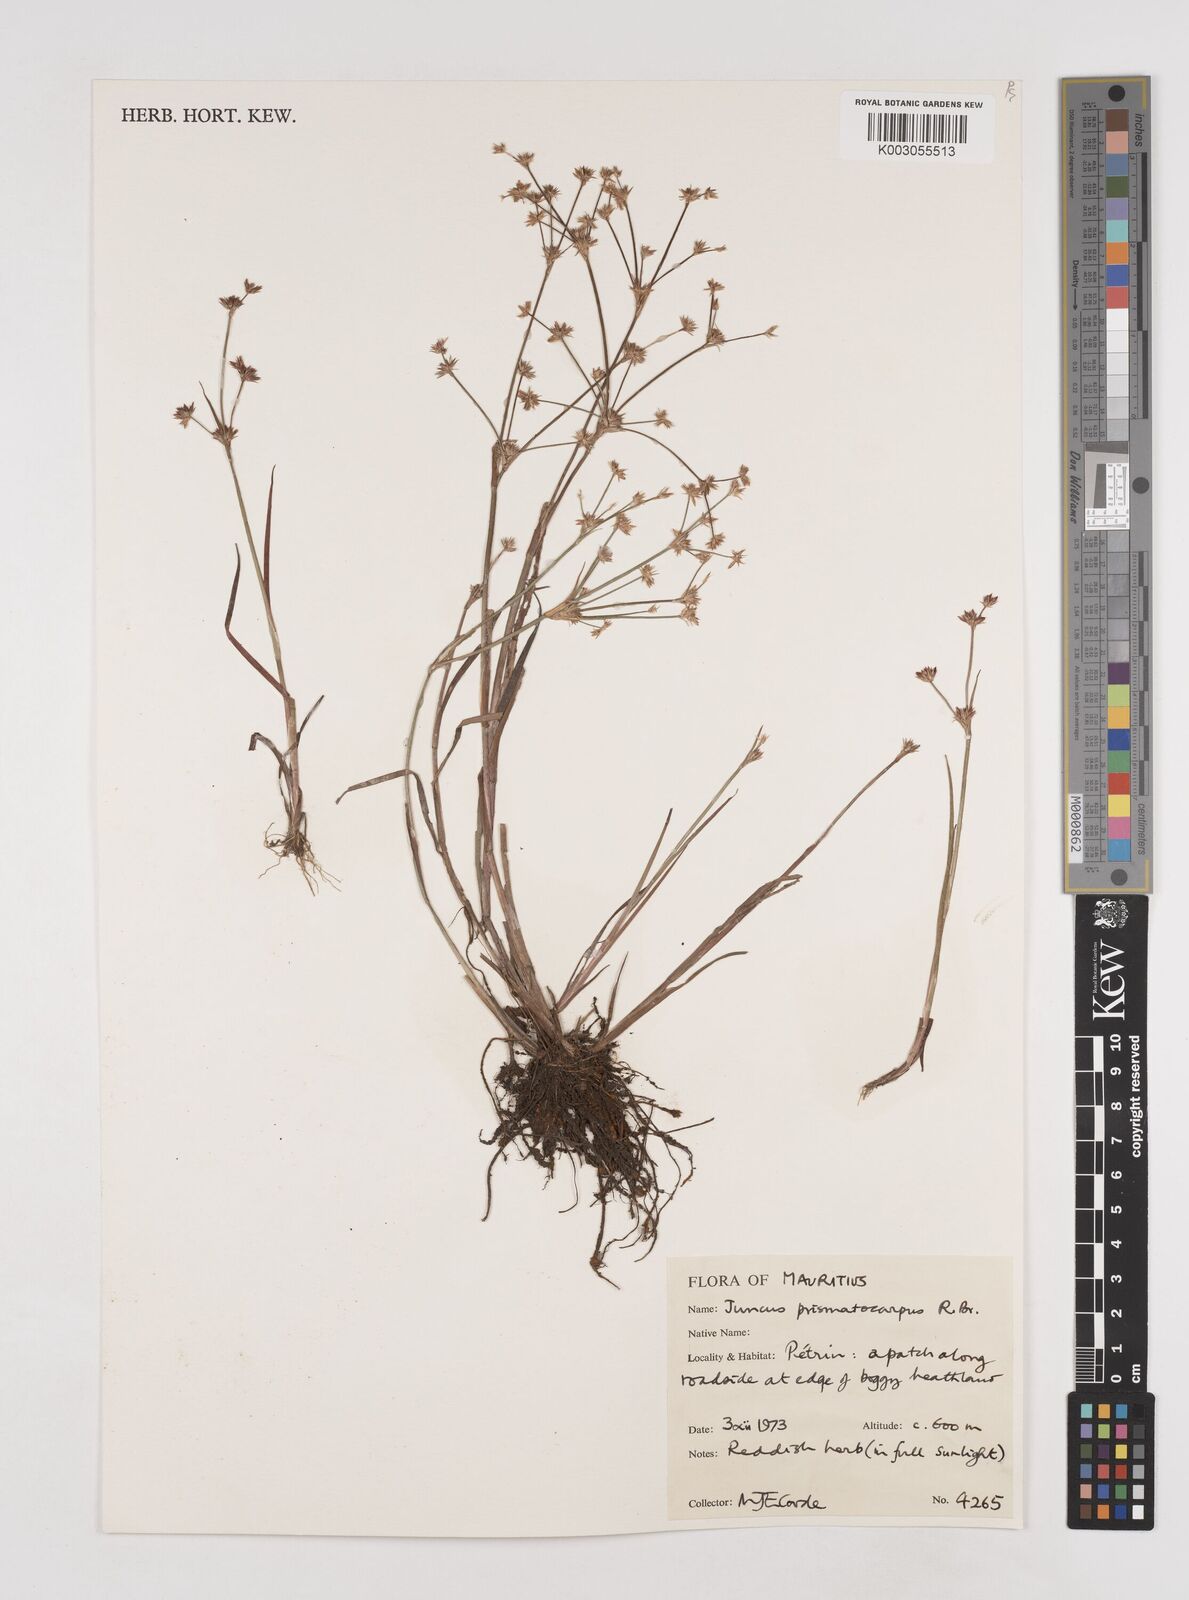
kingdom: Plantae
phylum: Tracheophyta
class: Liliopsida
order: Poales
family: Juncaceae
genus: Juncus
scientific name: Juncus prismatocarpus
